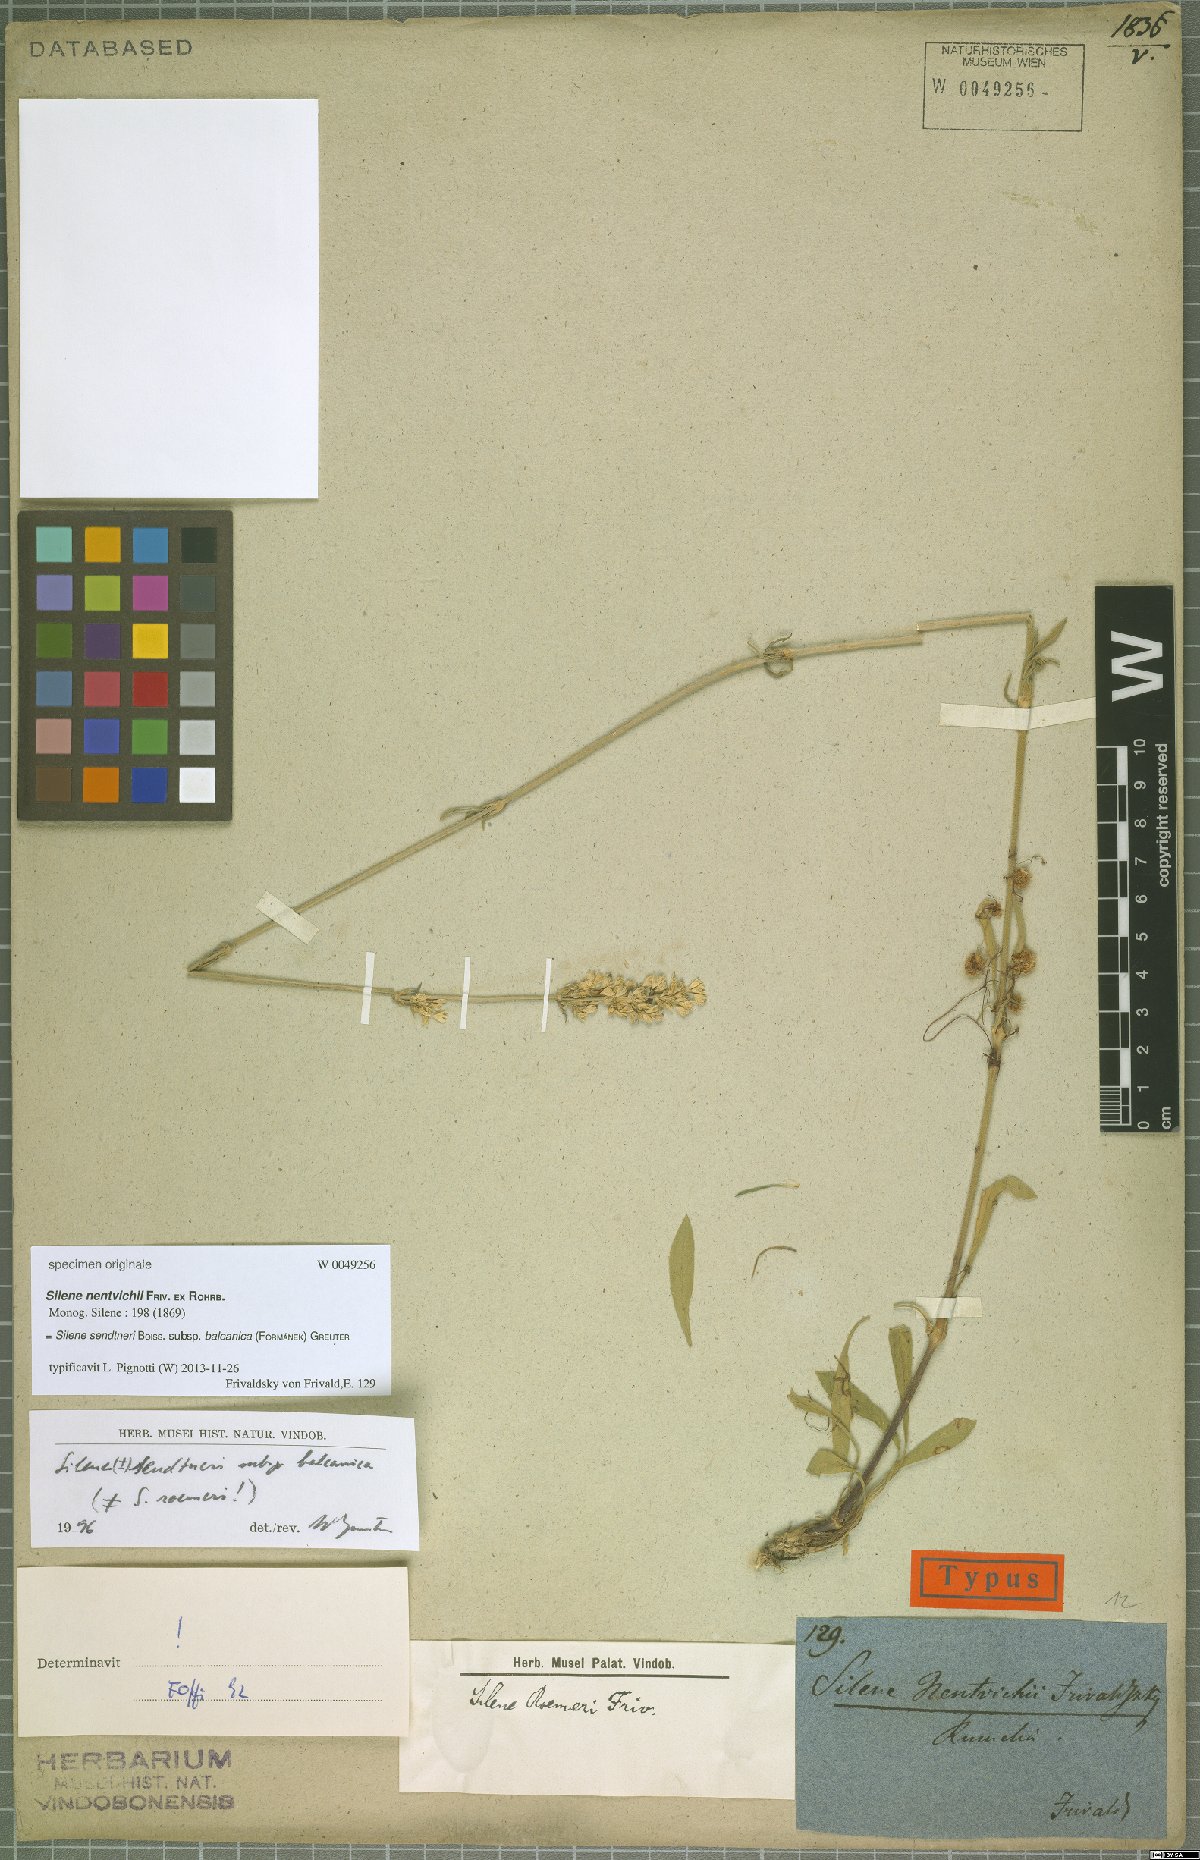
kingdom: Plantae
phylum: Tracheophyta
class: Magnoliopsida
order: Caryophyllales
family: Caryophyllaceae
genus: Silene
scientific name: Silene sendtneri
